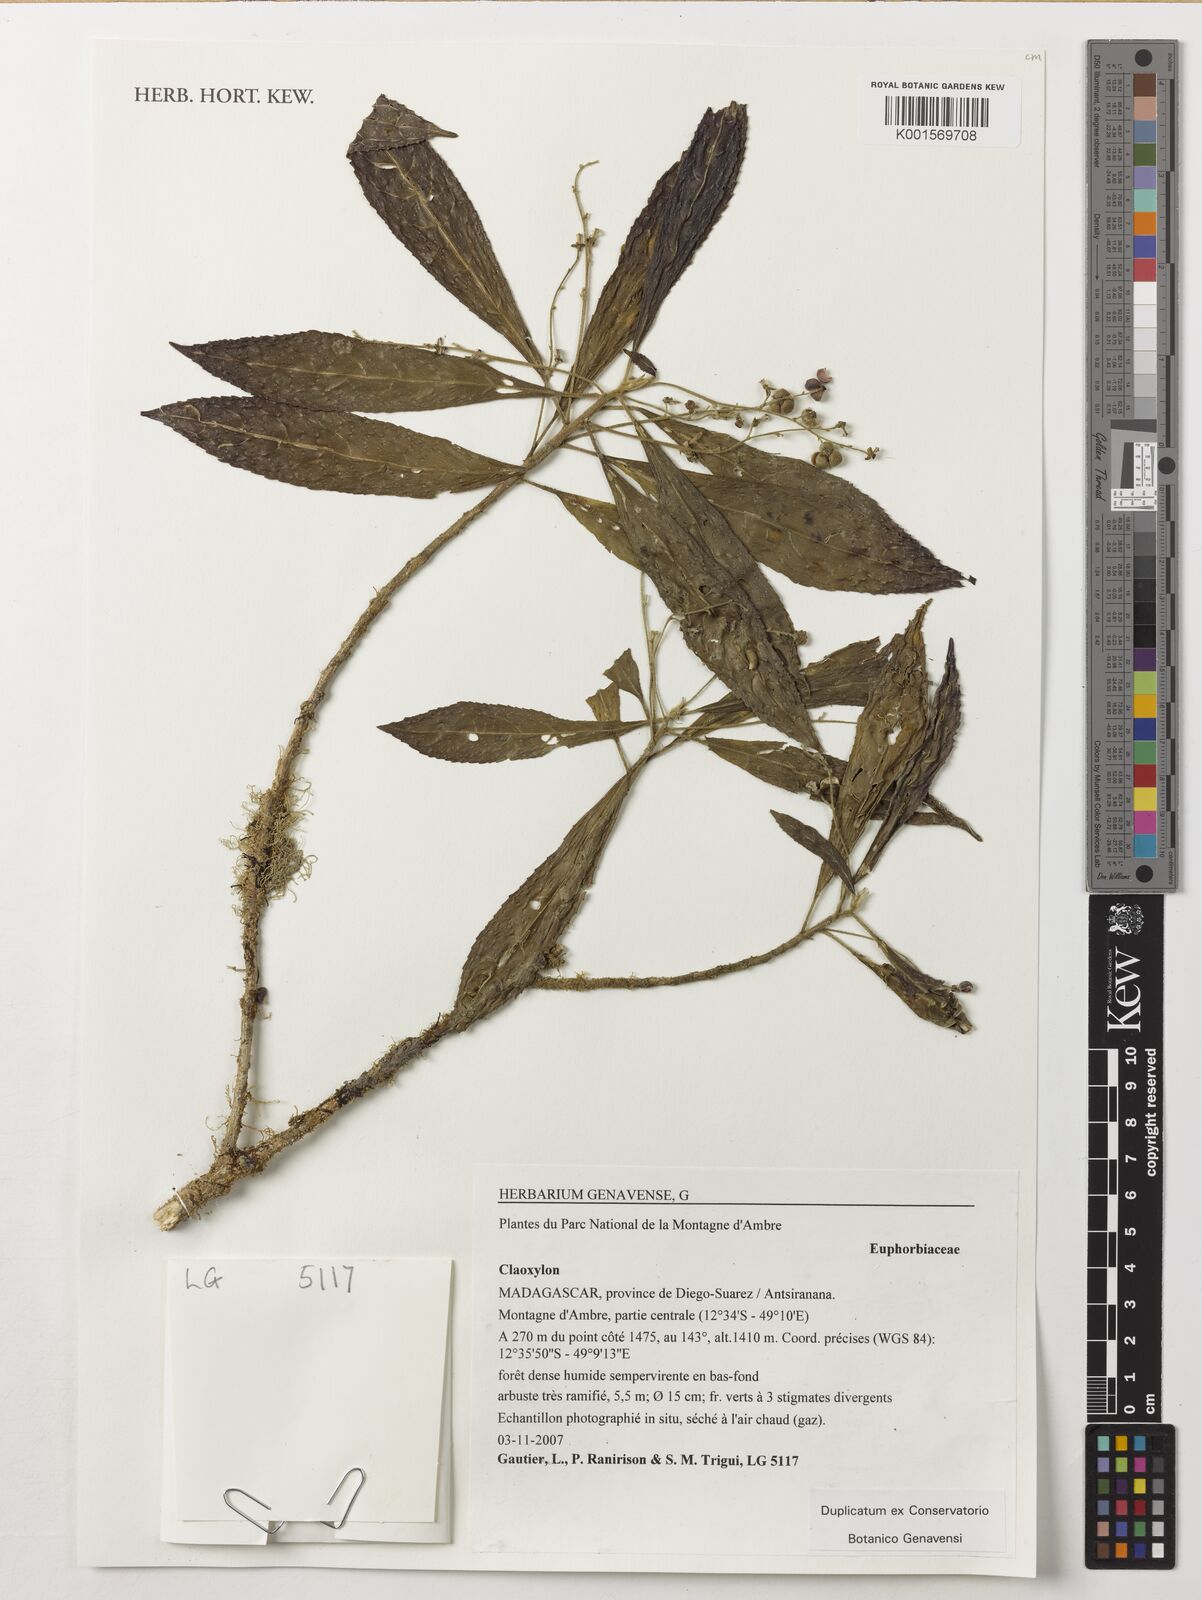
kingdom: Plantae
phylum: Tracheophyta
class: Magnoliopsida
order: Malpighiales
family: Euphorbiaceae
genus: Claoxylon
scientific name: Claoxylon
